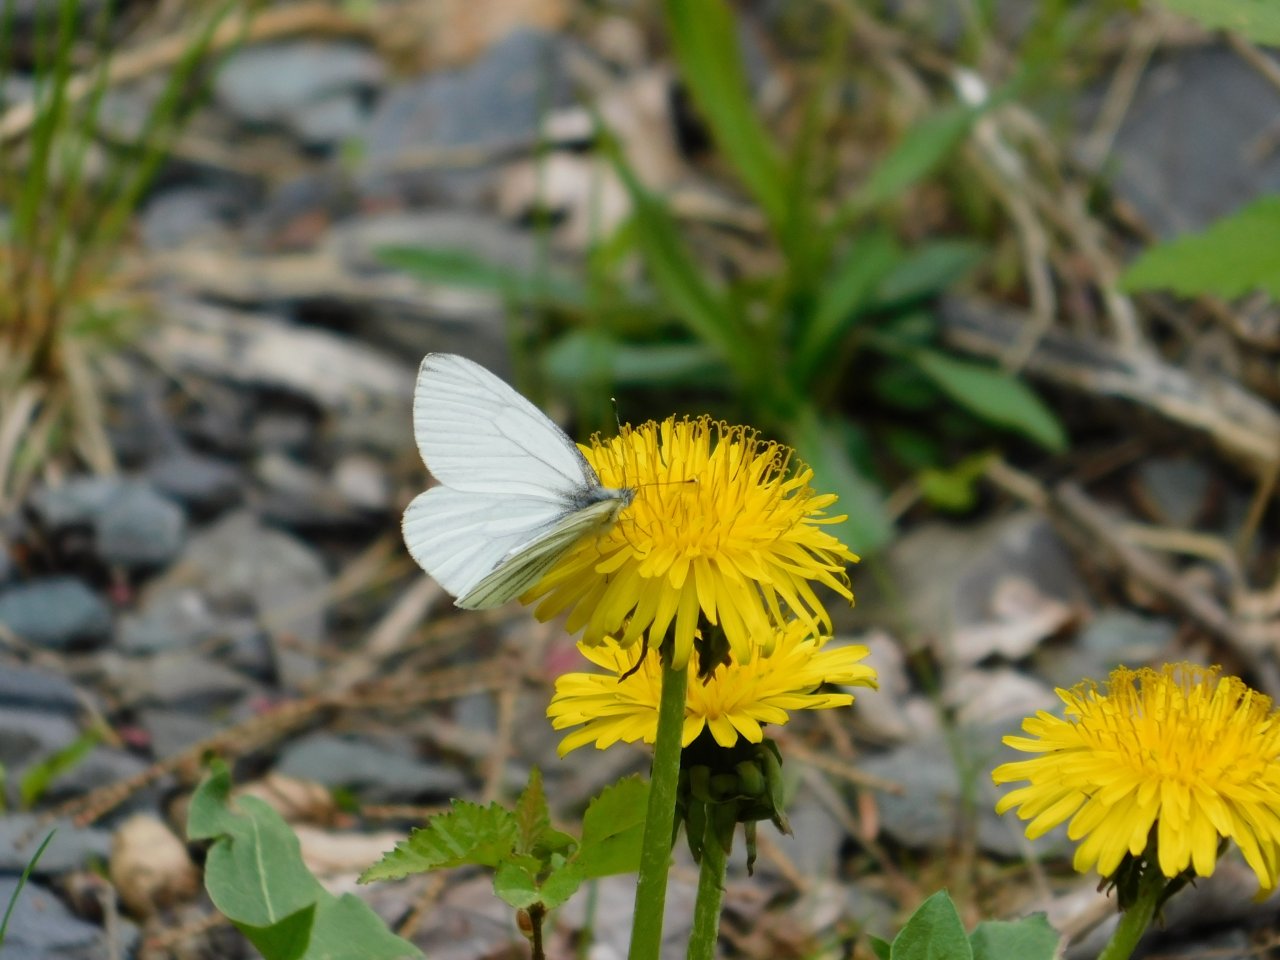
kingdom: Animalia
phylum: Arthropoda
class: Insecta
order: Lepidoptera
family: Pieridae
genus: Pieris
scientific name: Pieris oleracea
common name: Mustard White
